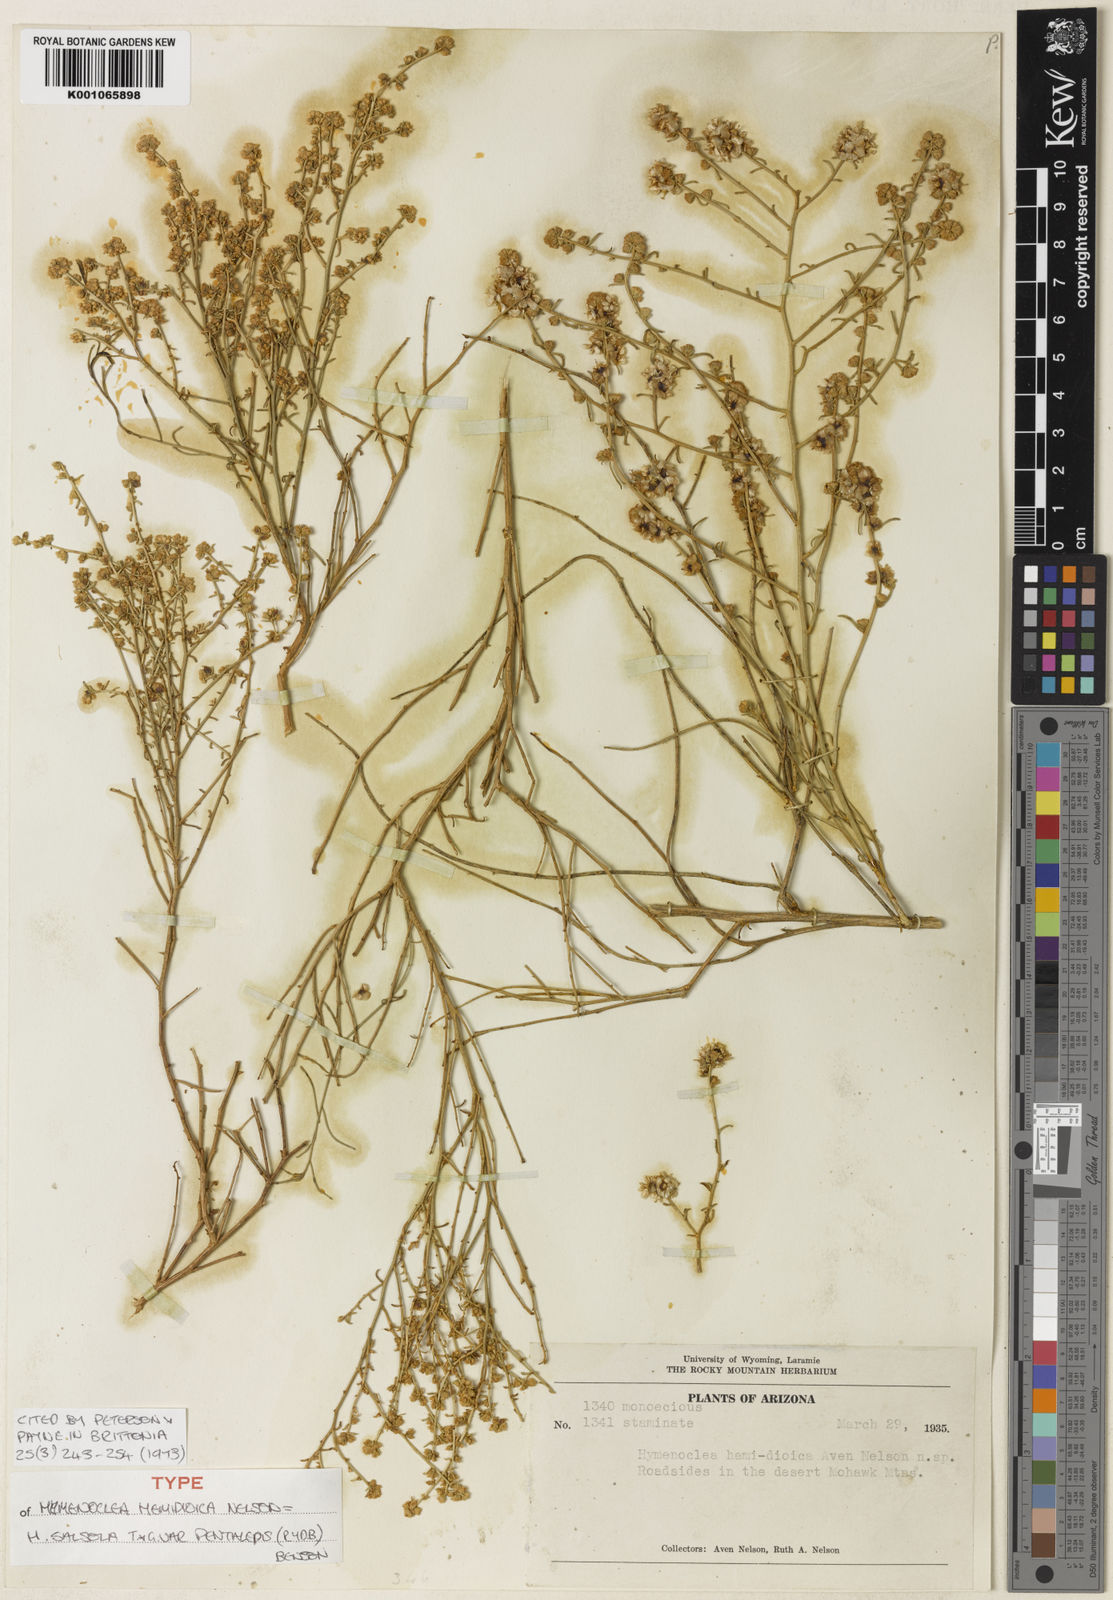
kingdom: Plantae
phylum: Tracheophyta
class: Magnoliopsida
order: Asterales
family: Asteraceae
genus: Ambrosia
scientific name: Ambrosia salsola
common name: Burrobrush
